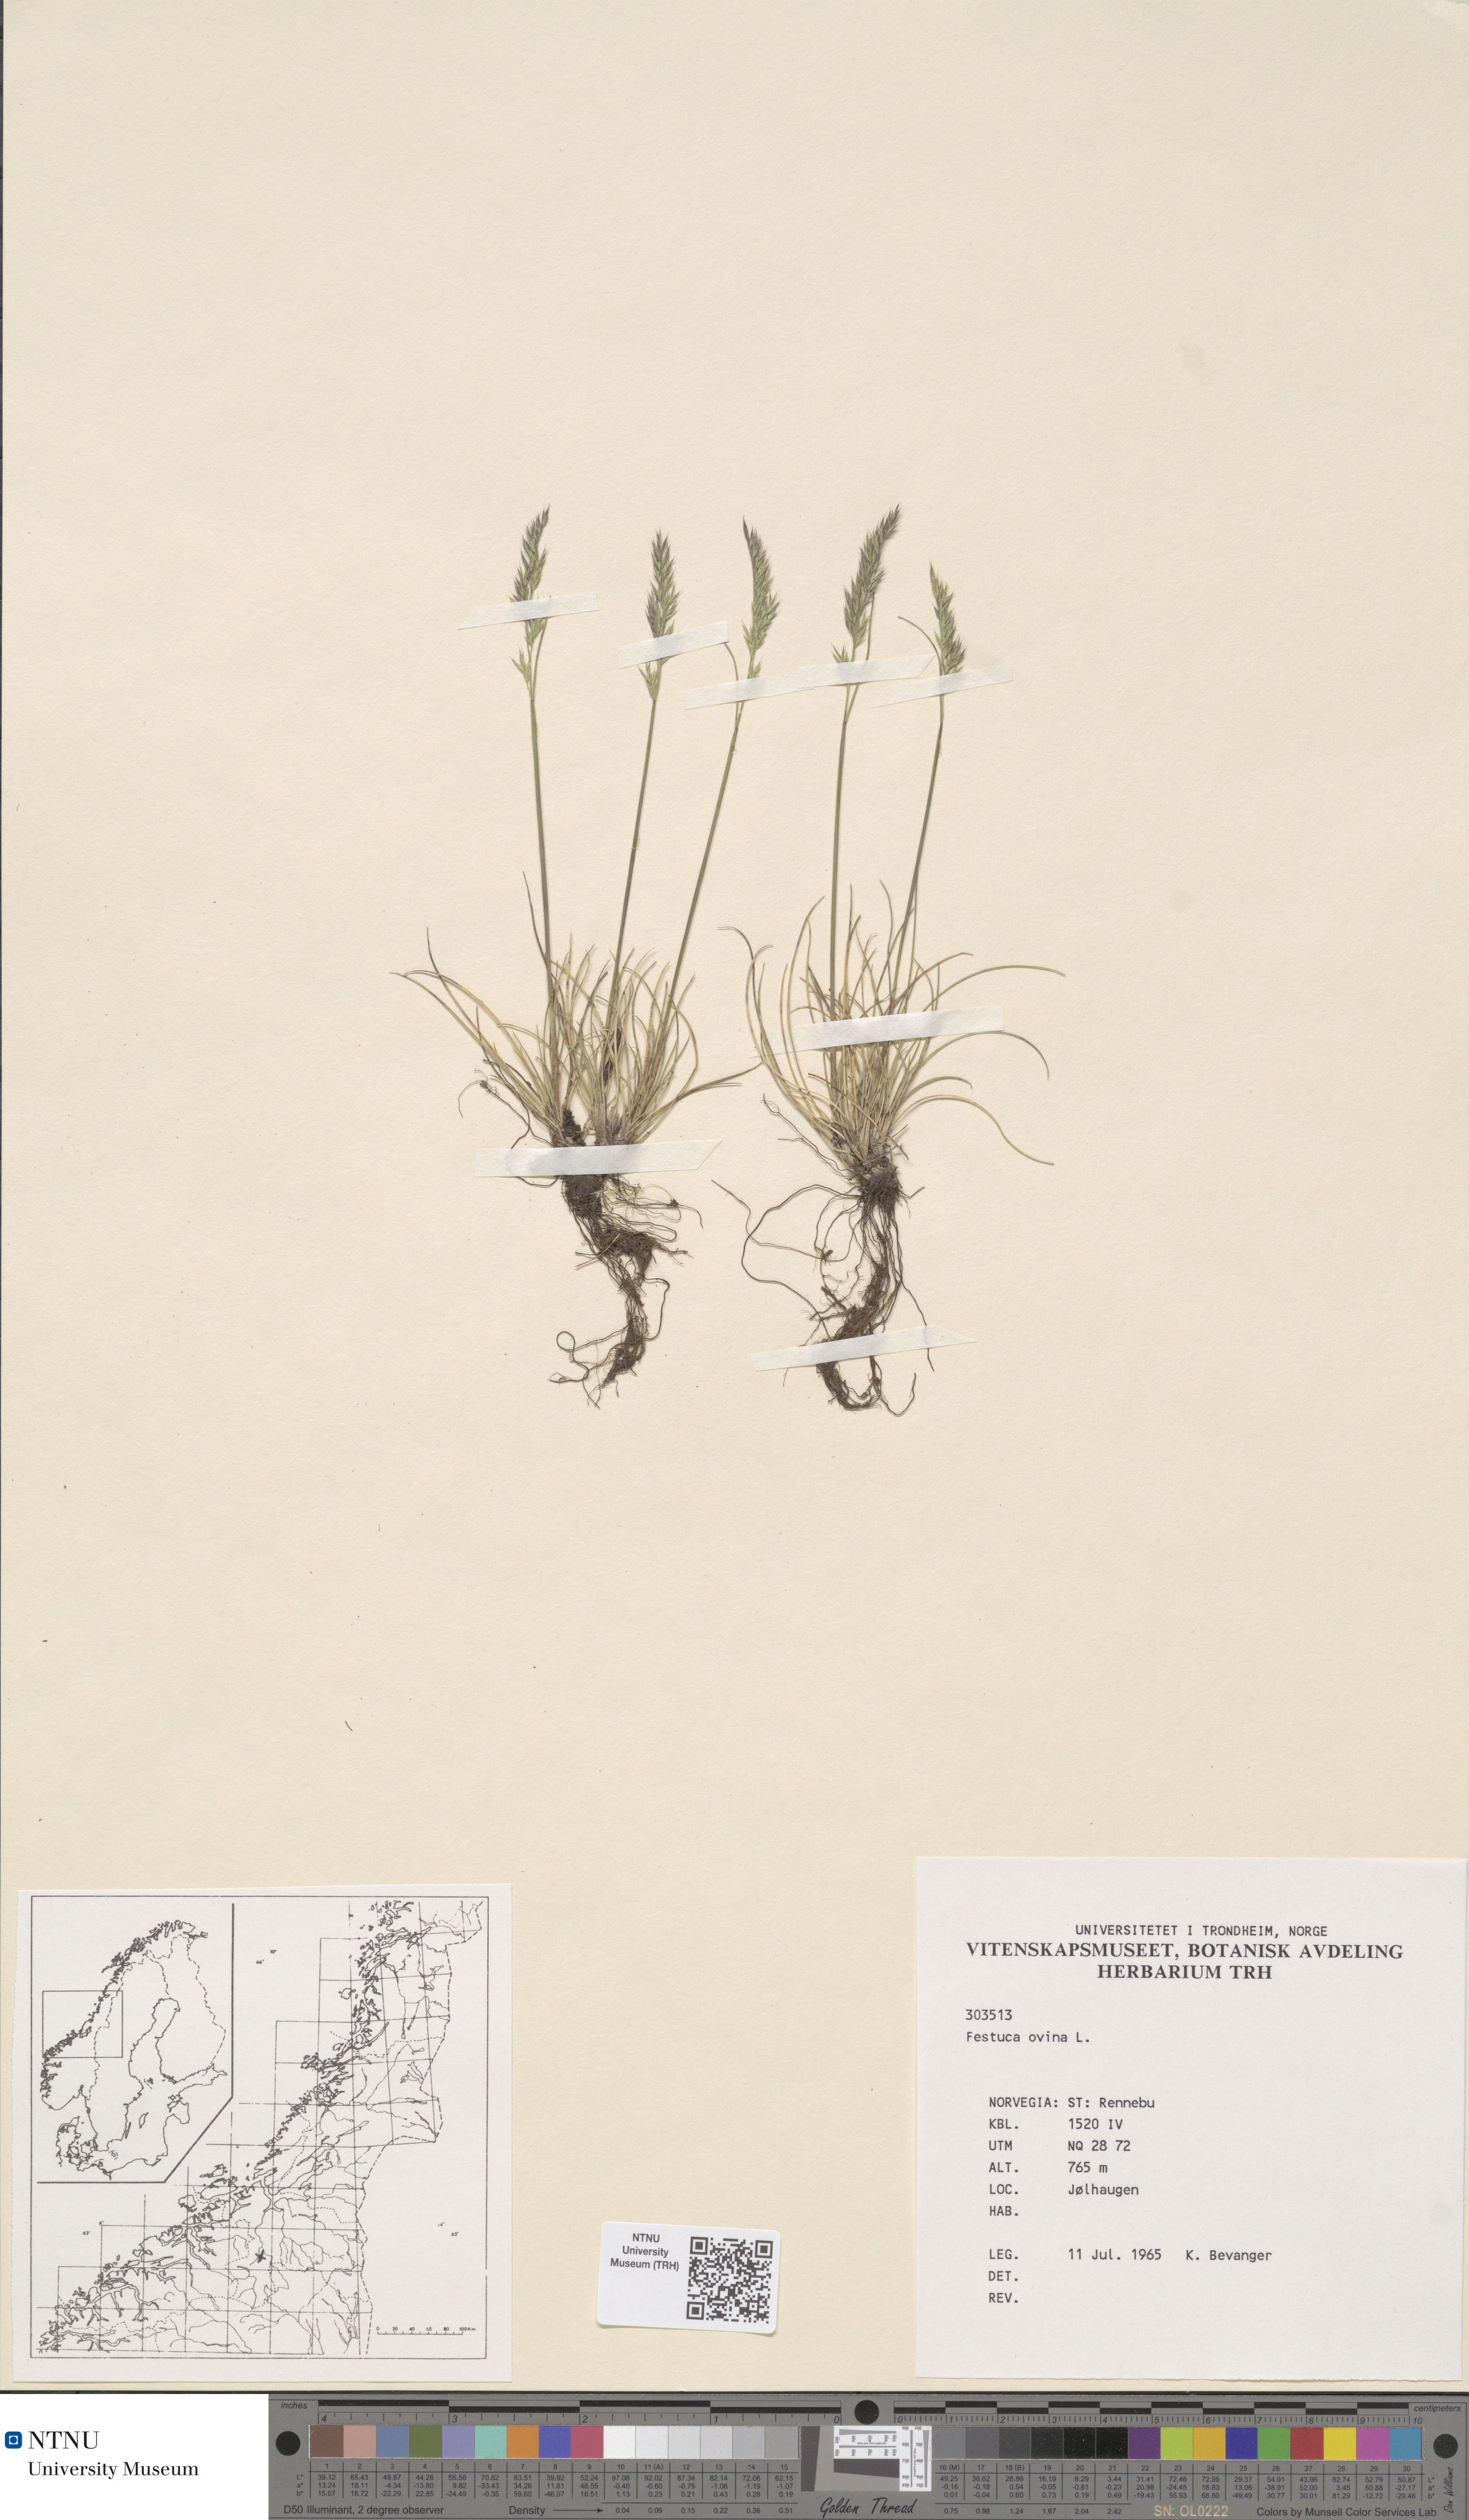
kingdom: Plantae
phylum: Tracheophyta
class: Liliopsida
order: Poales
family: Poaceae
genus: Festuca
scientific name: Festuca ovina
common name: Sheep fescue
